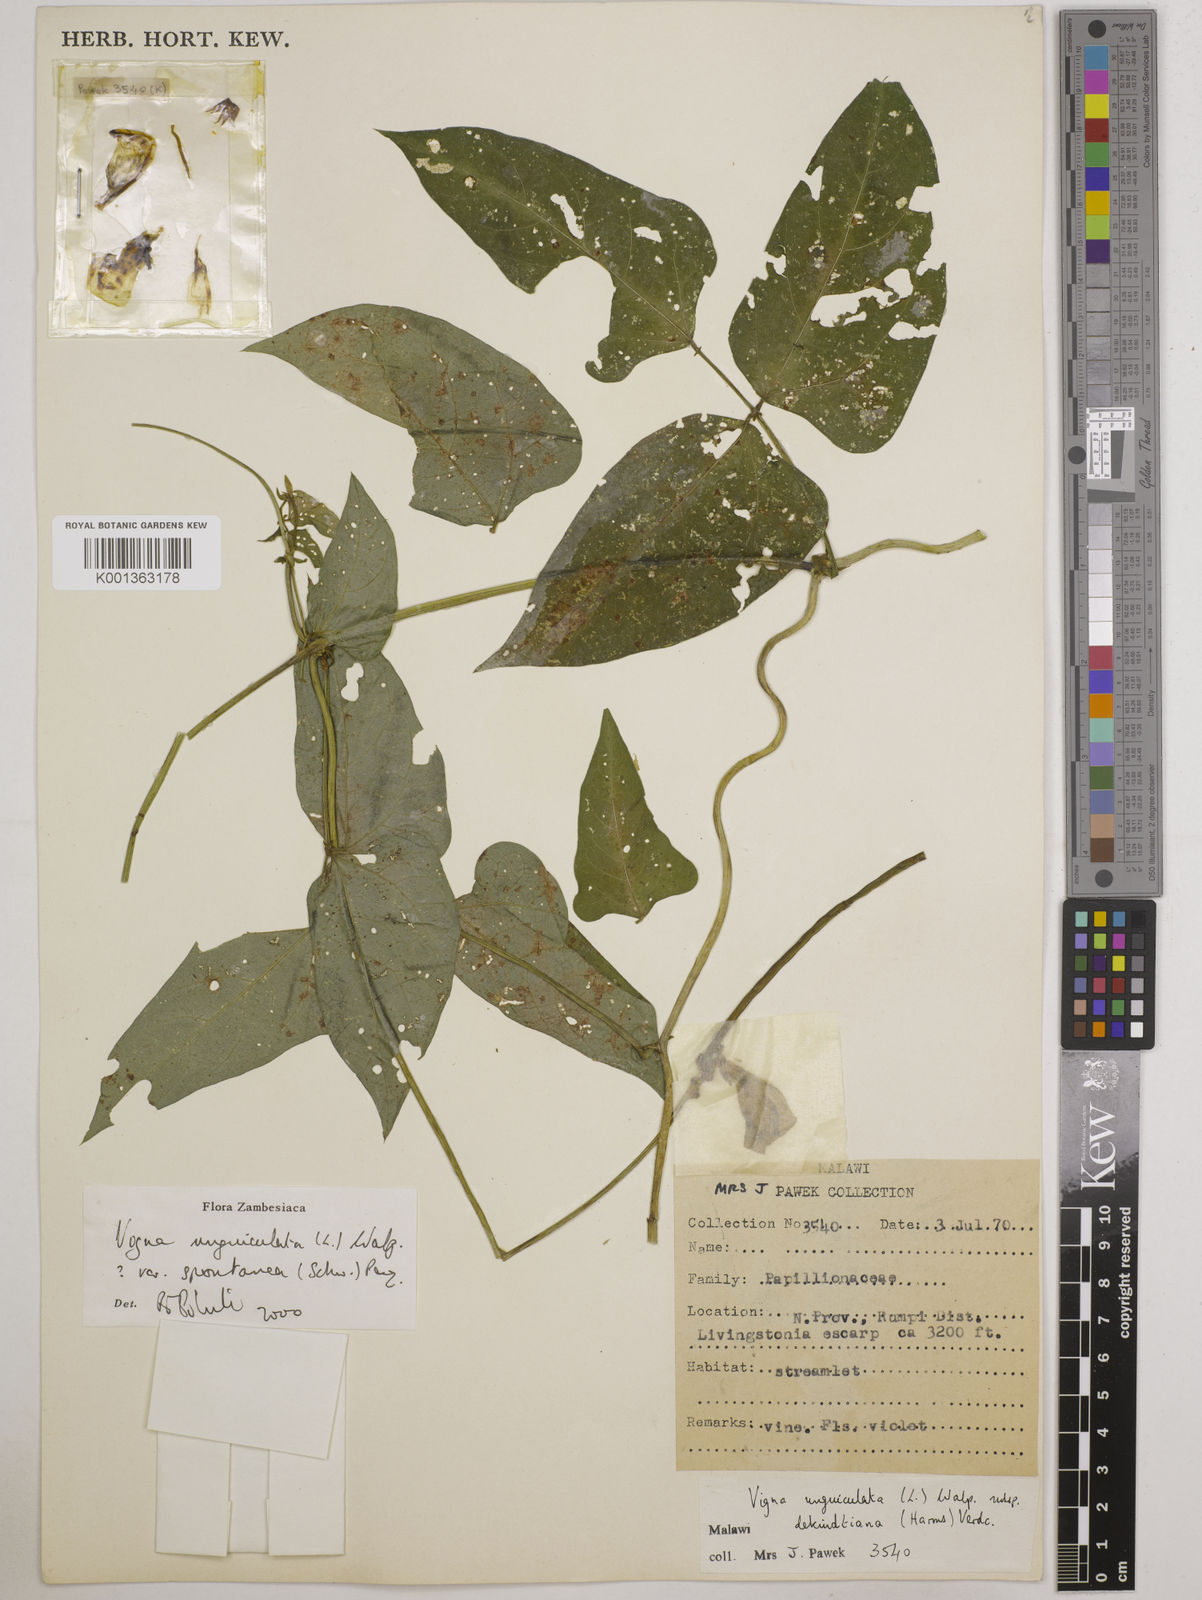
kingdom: Plantae
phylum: Tracheophyta
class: Magnoliopsida
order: Fabales
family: Fabaceae
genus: Vigna
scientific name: Vigna unguiculata
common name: Cowpea
